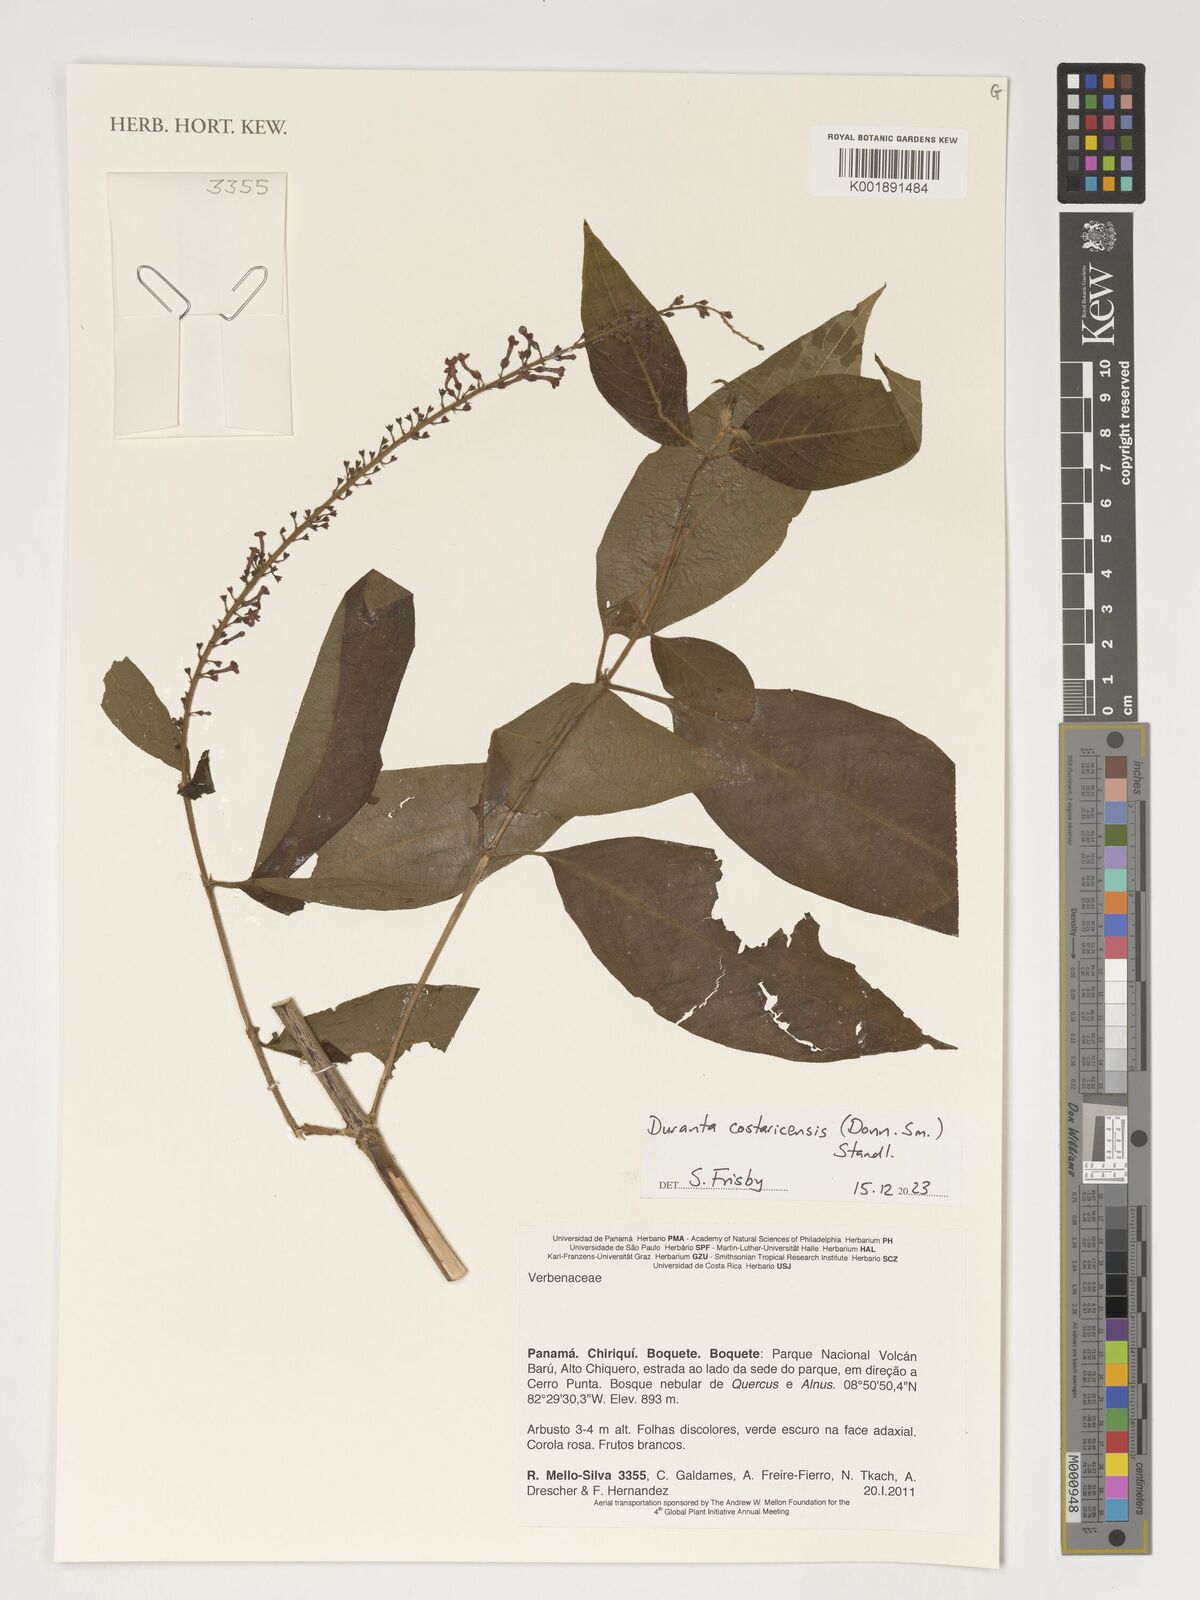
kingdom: Plantae
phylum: Tracheophyta
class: Magnoliopsida
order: Lamiales
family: Verbenaceae
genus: Duranta
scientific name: Duranta costaricensis
